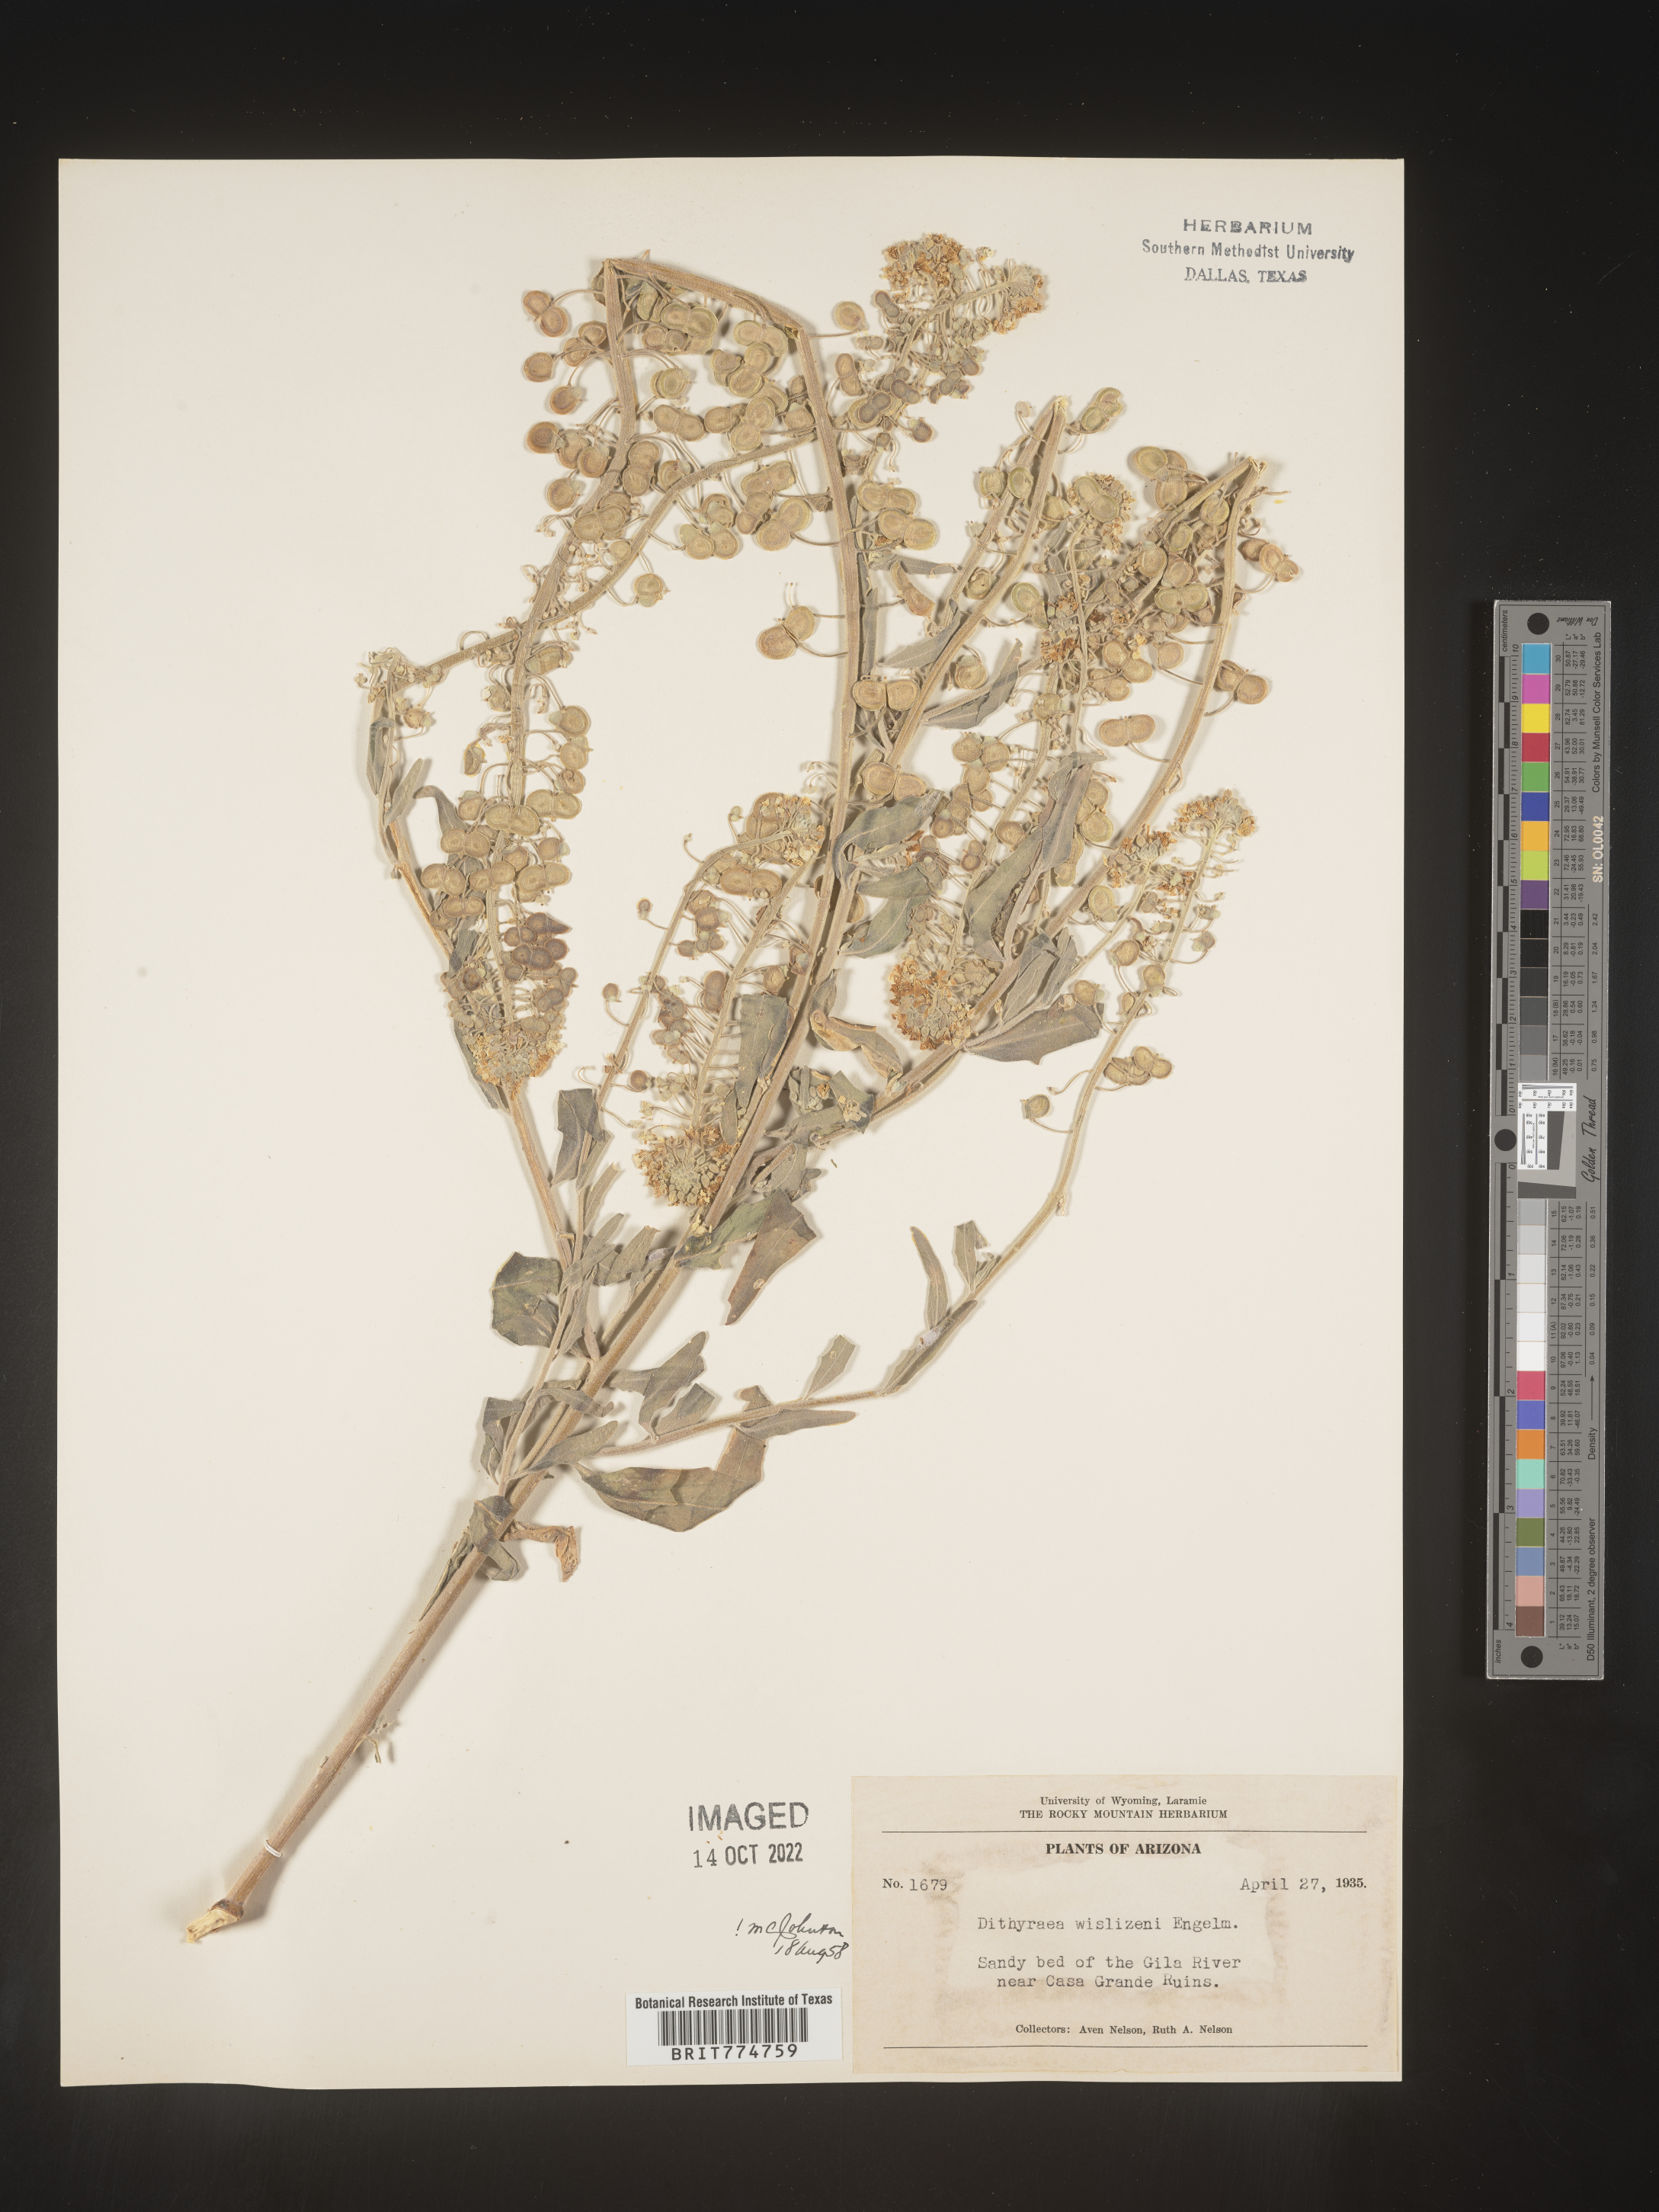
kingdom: Plantae
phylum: Tracheophyta
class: Magnoliopsida
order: Brassicales
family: Brassicaceae
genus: Dimorphocarpa
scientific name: Dimorphocarpa wislizenii
